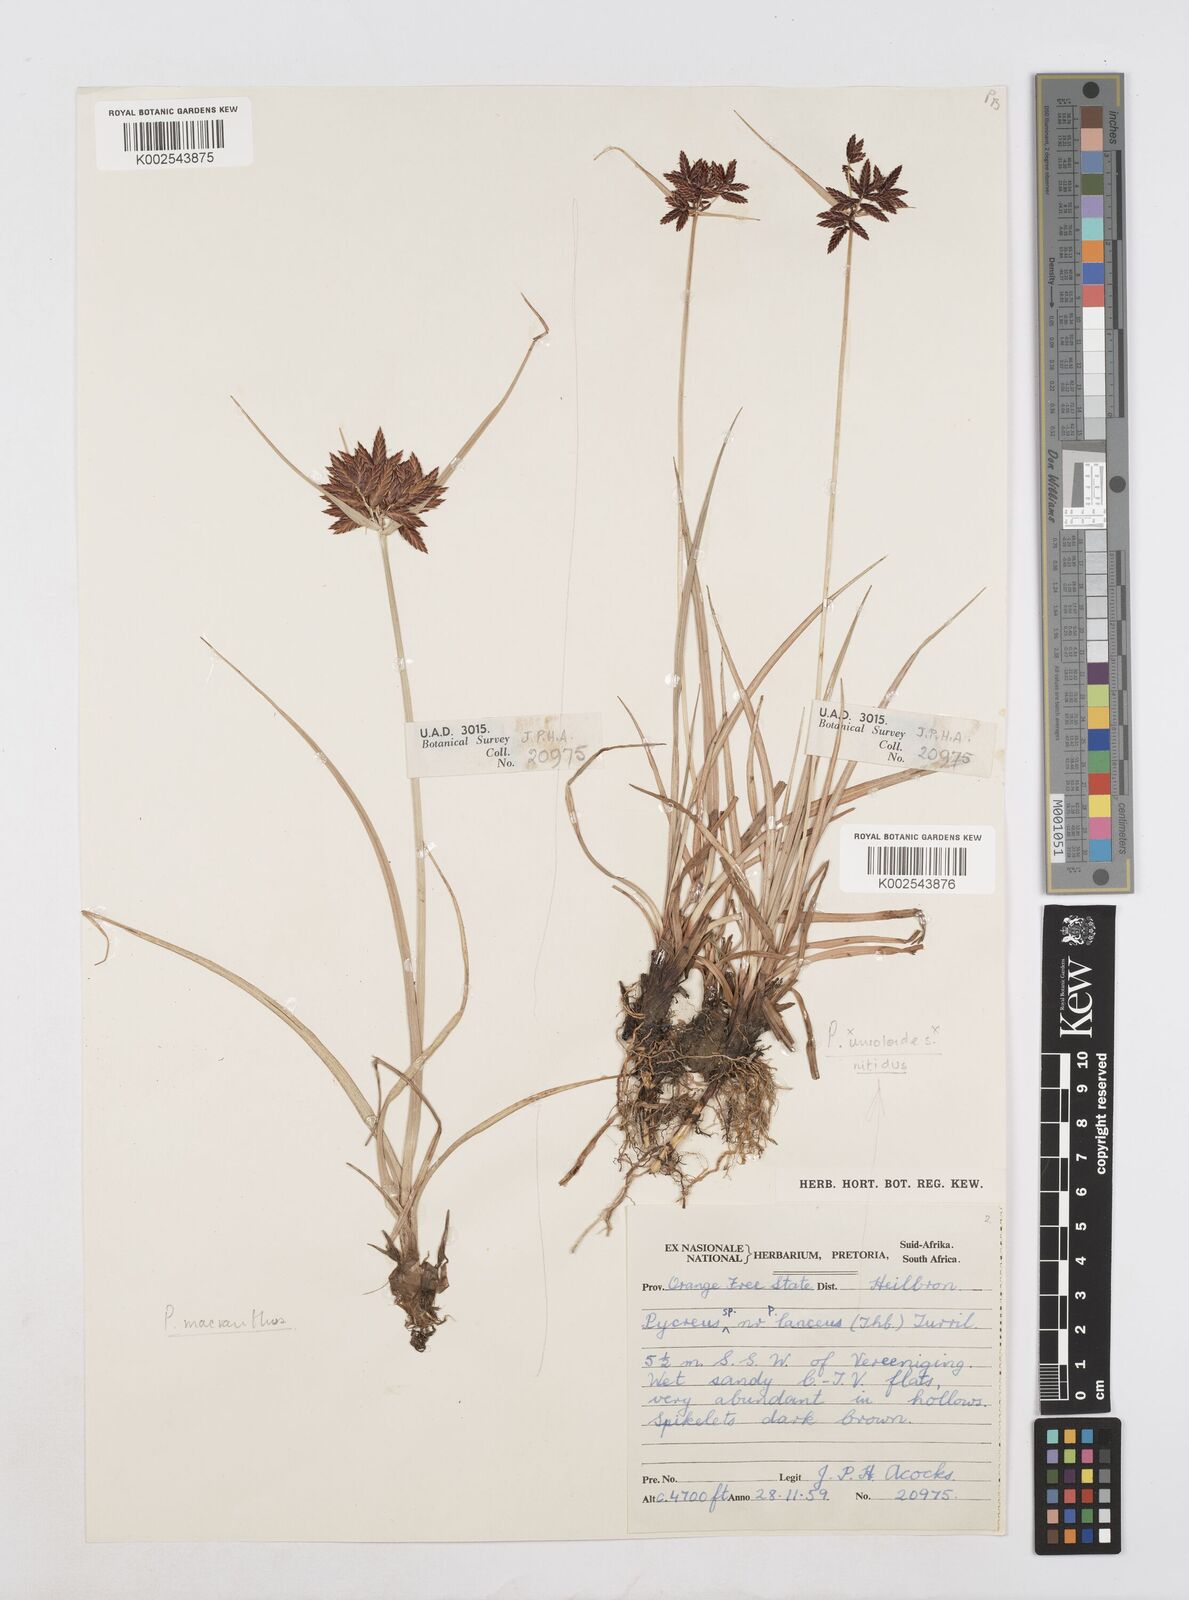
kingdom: Plantae
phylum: Tracheophyta
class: Liliopsida
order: Poales
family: Cyperaceae
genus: Cyperus
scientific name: Cyperus nigricans
